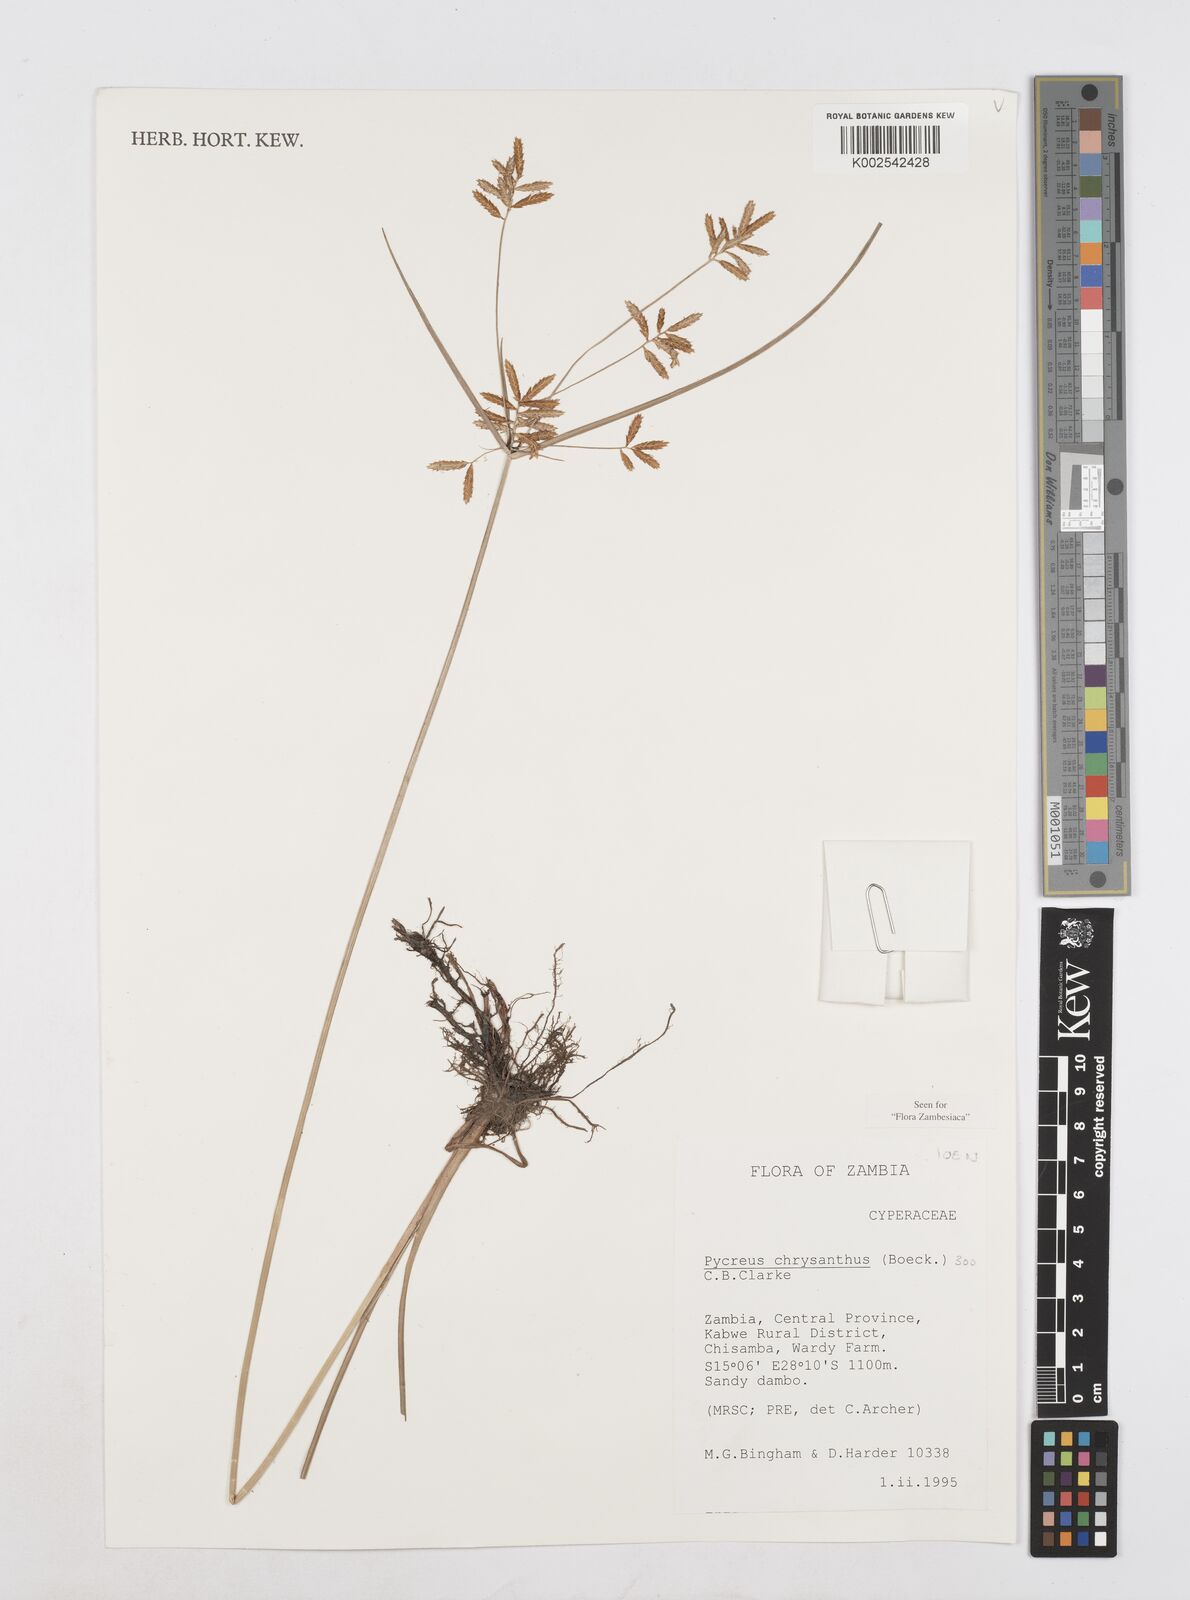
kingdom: Plantae
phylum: Tracheophyta
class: Liliopsida
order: Poales
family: Cyperaceae
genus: Cyperus
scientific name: Cyperus chrysanthus
